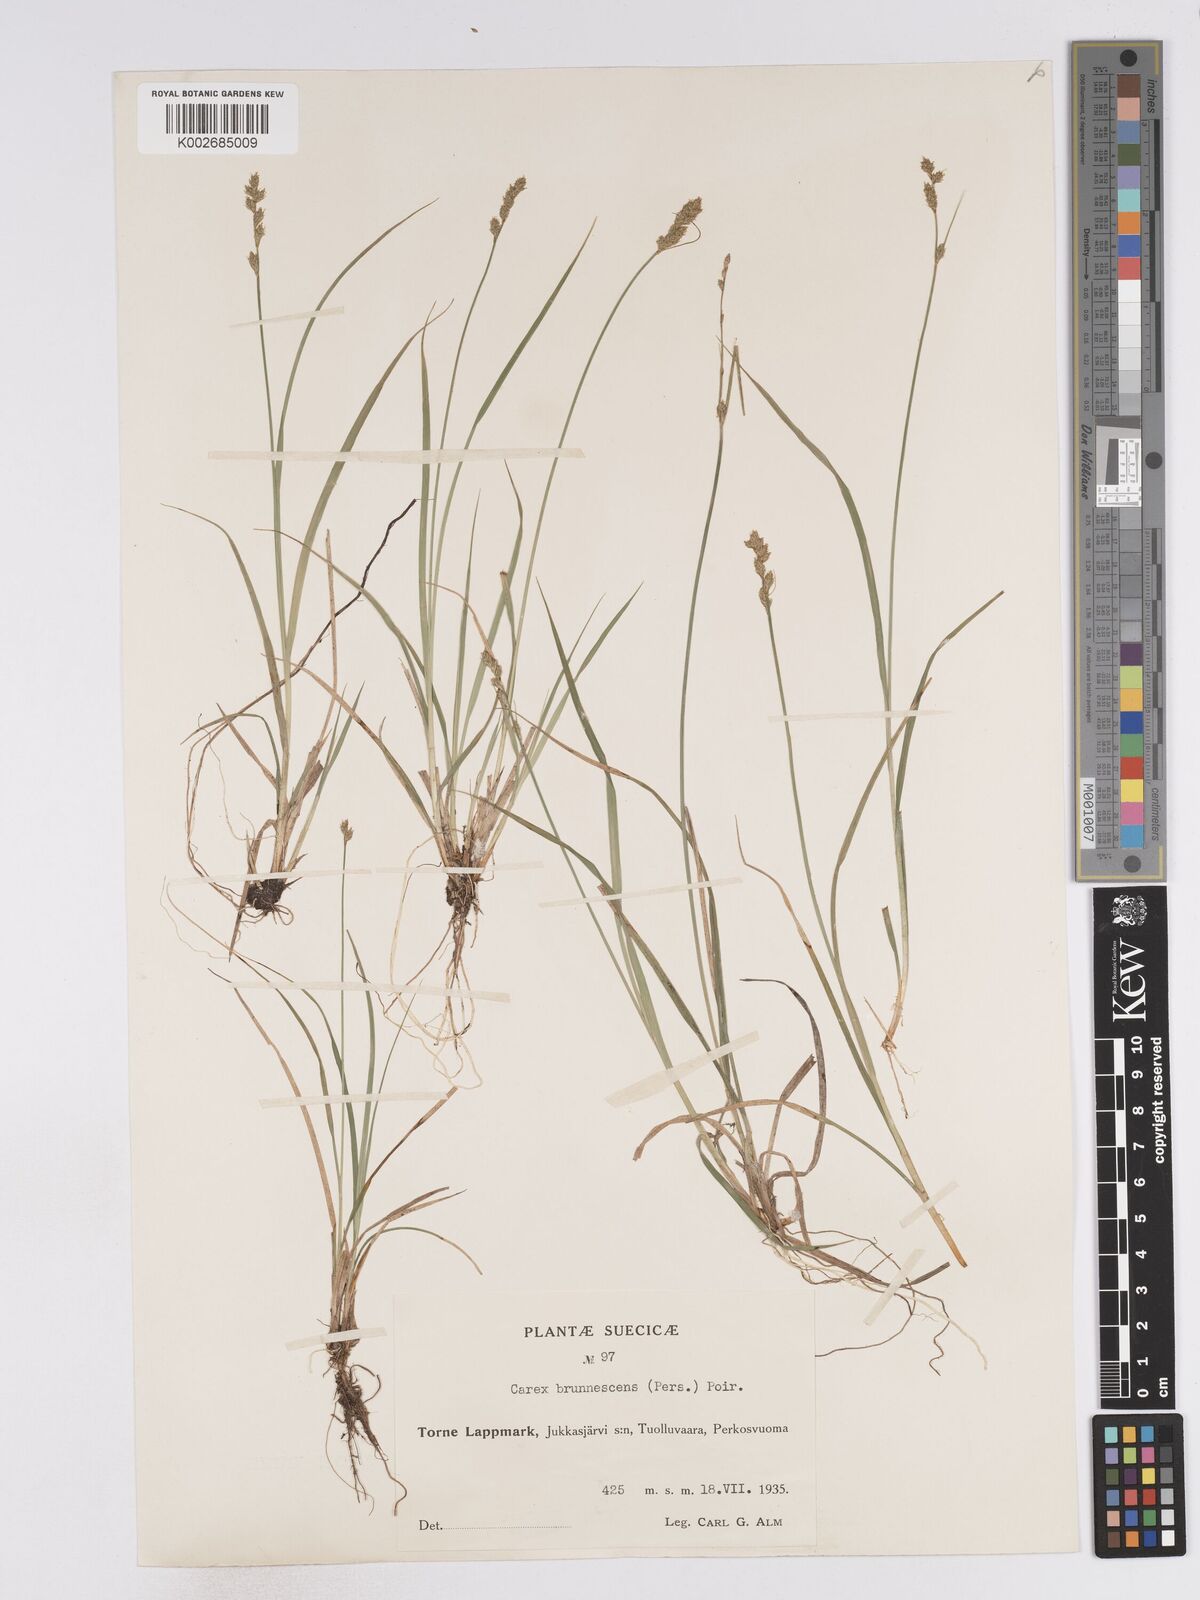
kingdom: Plantae
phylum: Tracheophyta
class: Liliopsida
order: Poales
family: Cyperaceae
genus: Carex
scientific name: Carex brunnescens
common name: Brown sedge
